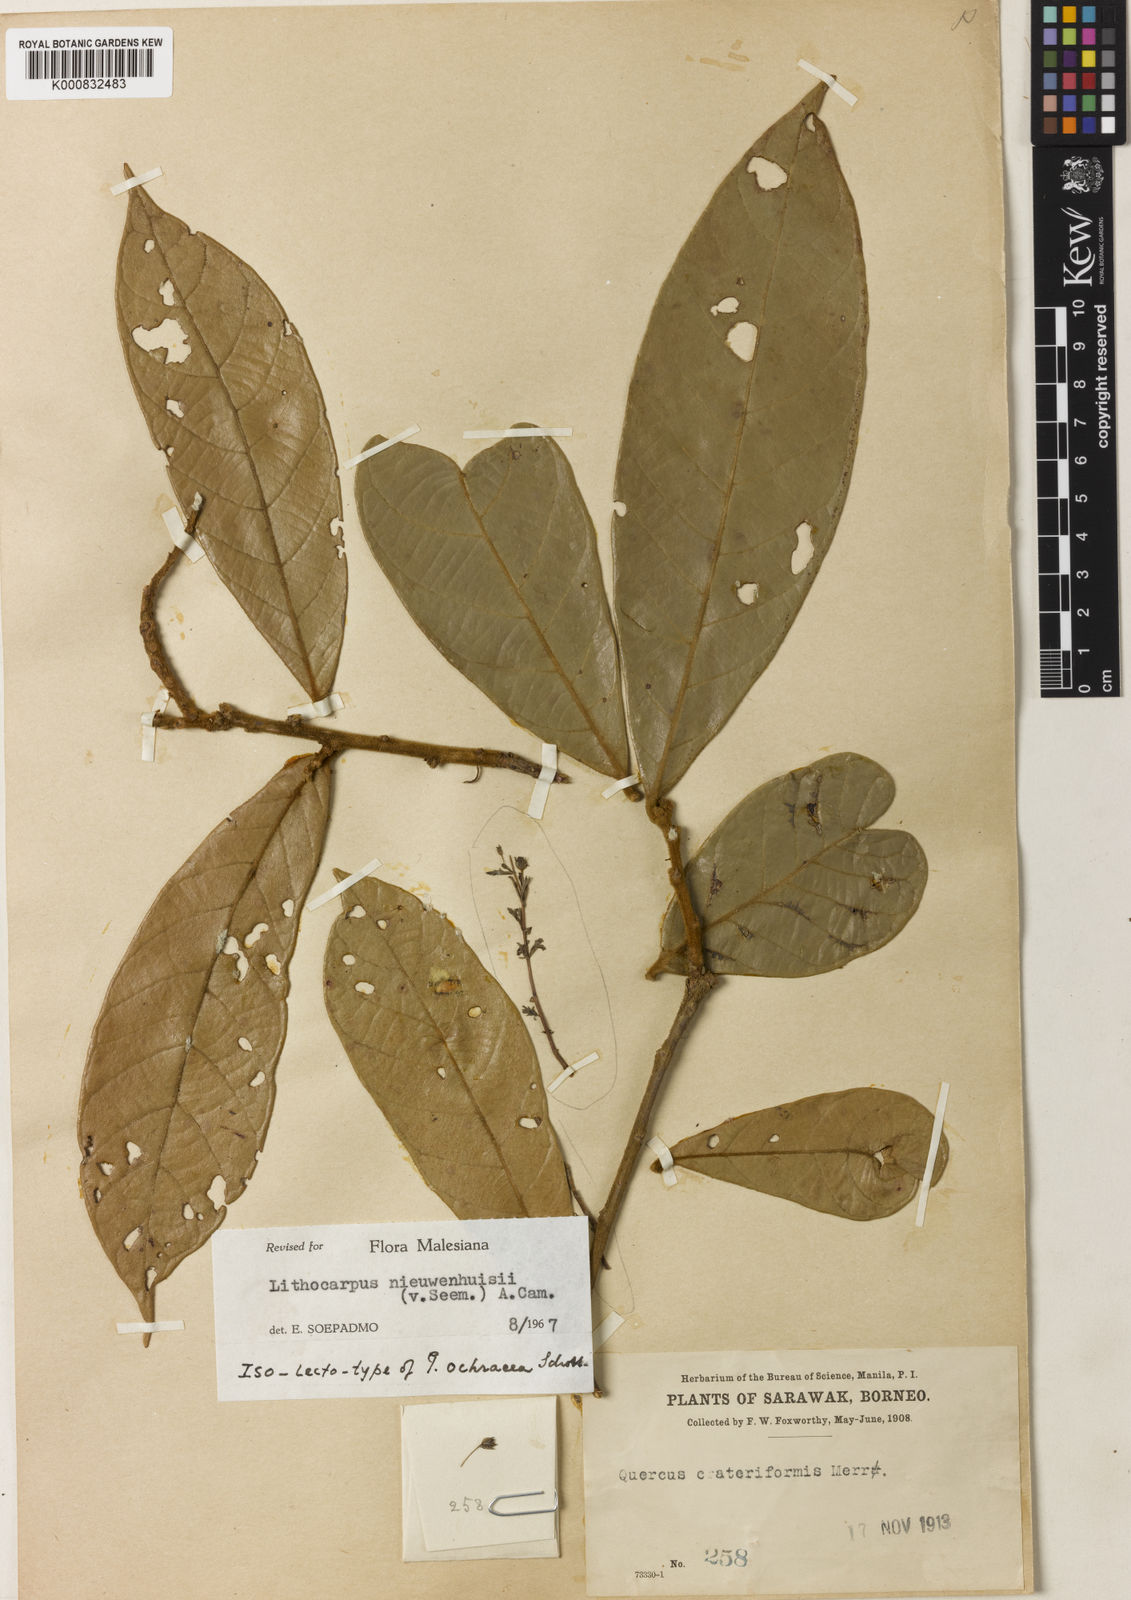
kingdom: Plantae
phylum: Tracheophyta
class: Magnoliopsida
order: Fagales
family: Fagaceae
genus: Lithocarpus
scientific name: Lithocarpus nieuwenhuisii
